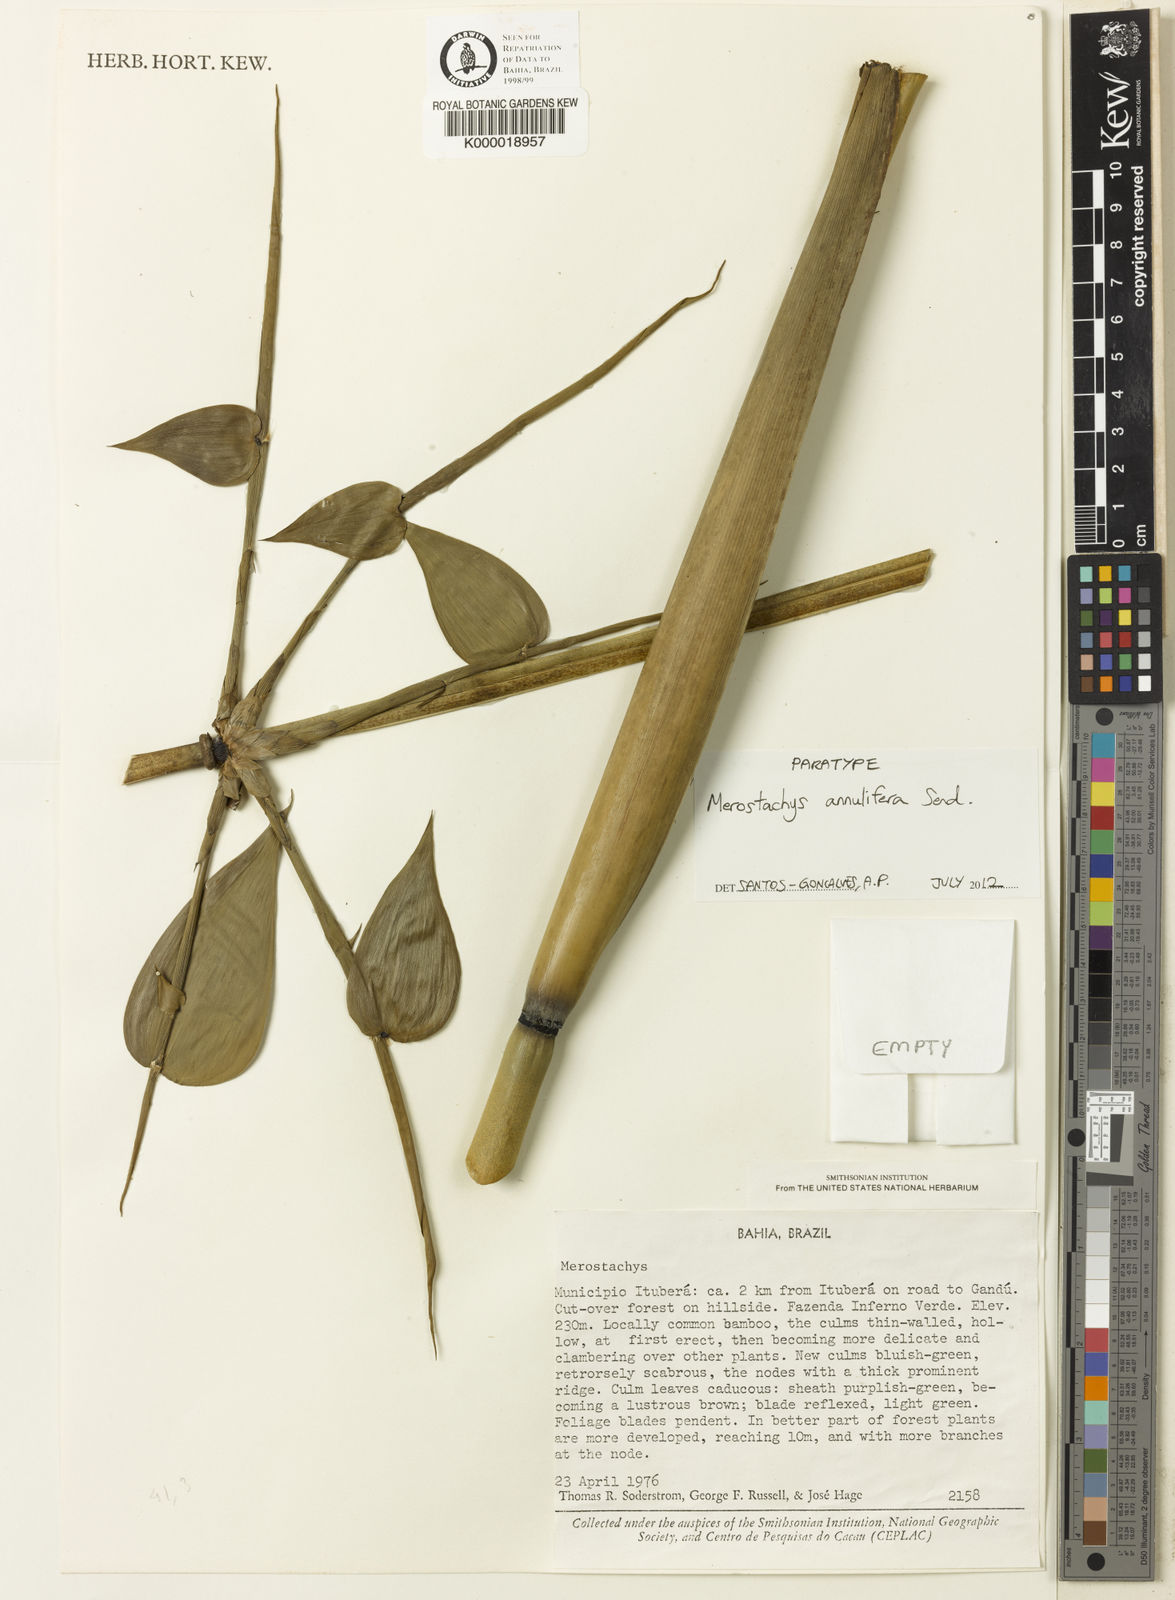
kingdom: Plantae
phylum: Tracheophyta
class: Liliopsida
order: Poales
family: Poaceae
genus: Merostachys
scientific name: Merostachys annulifera
